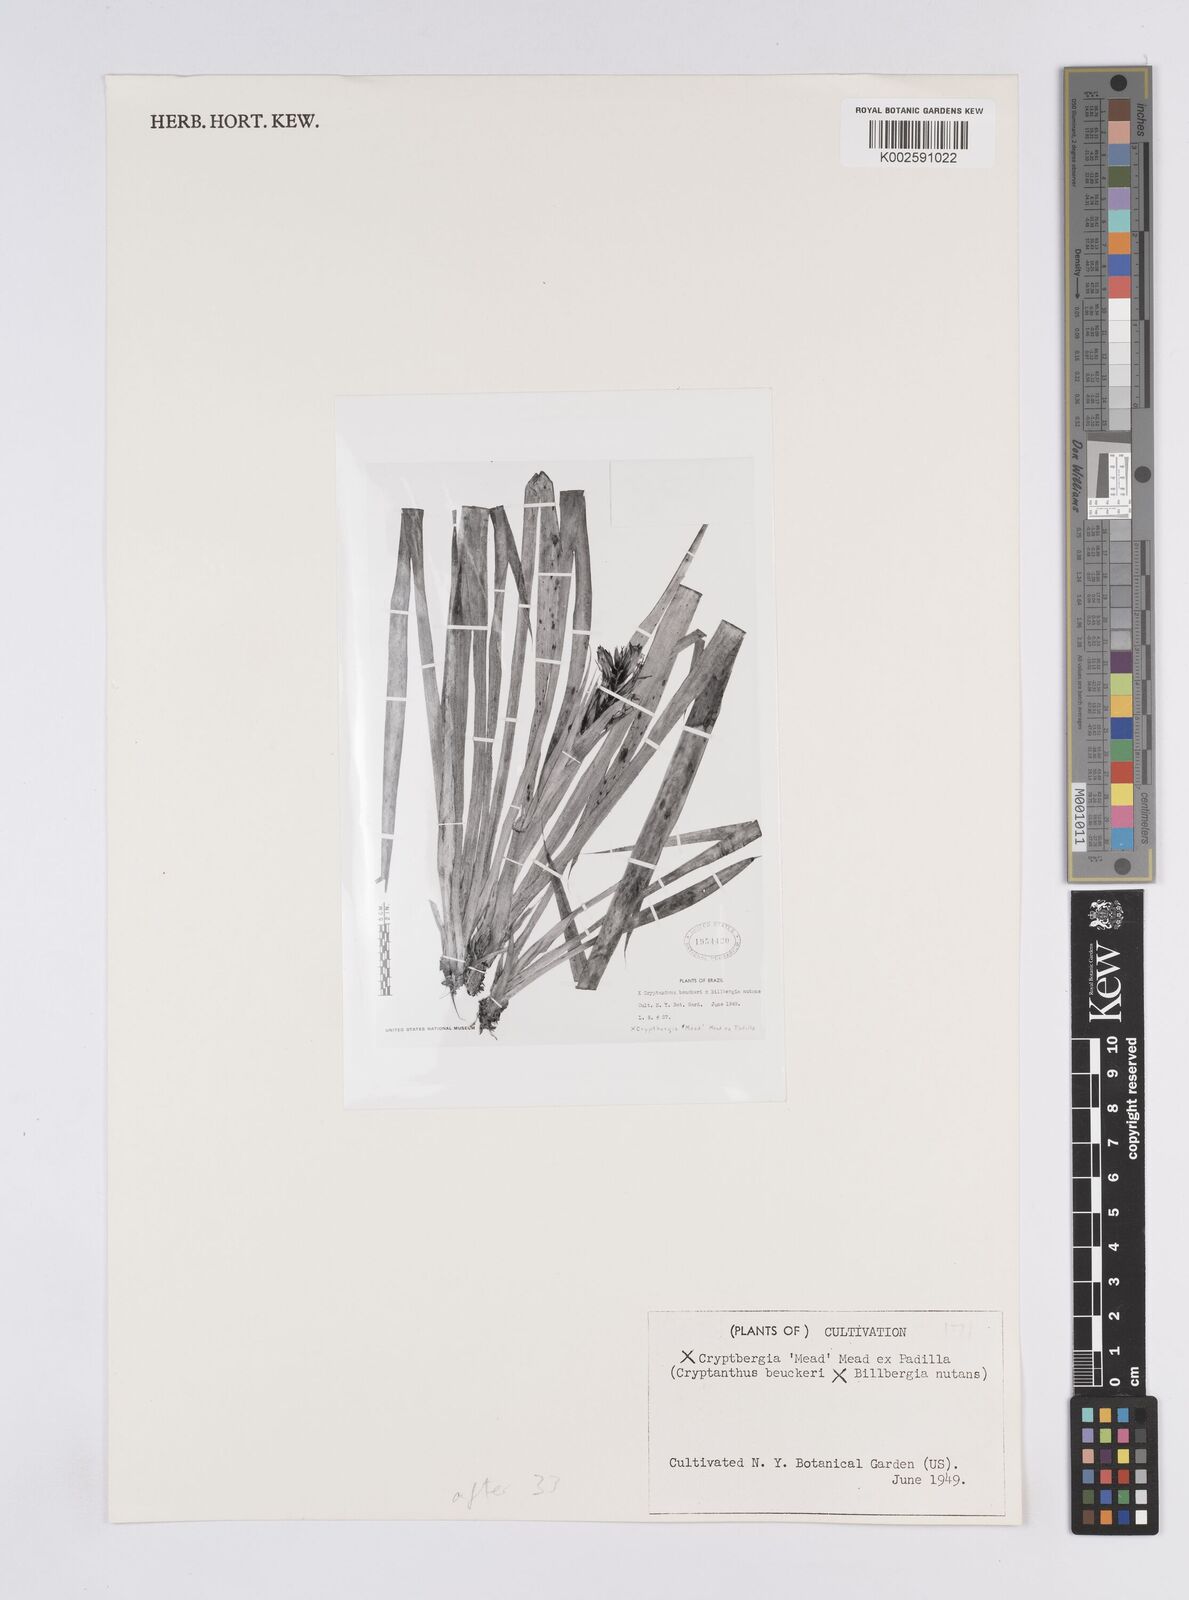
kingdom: Plantae
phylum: Tracheophyta
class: Liliopsida
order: Poales
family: Bromeliaceae
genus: Cryptanthus
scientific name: Cryptanthus
